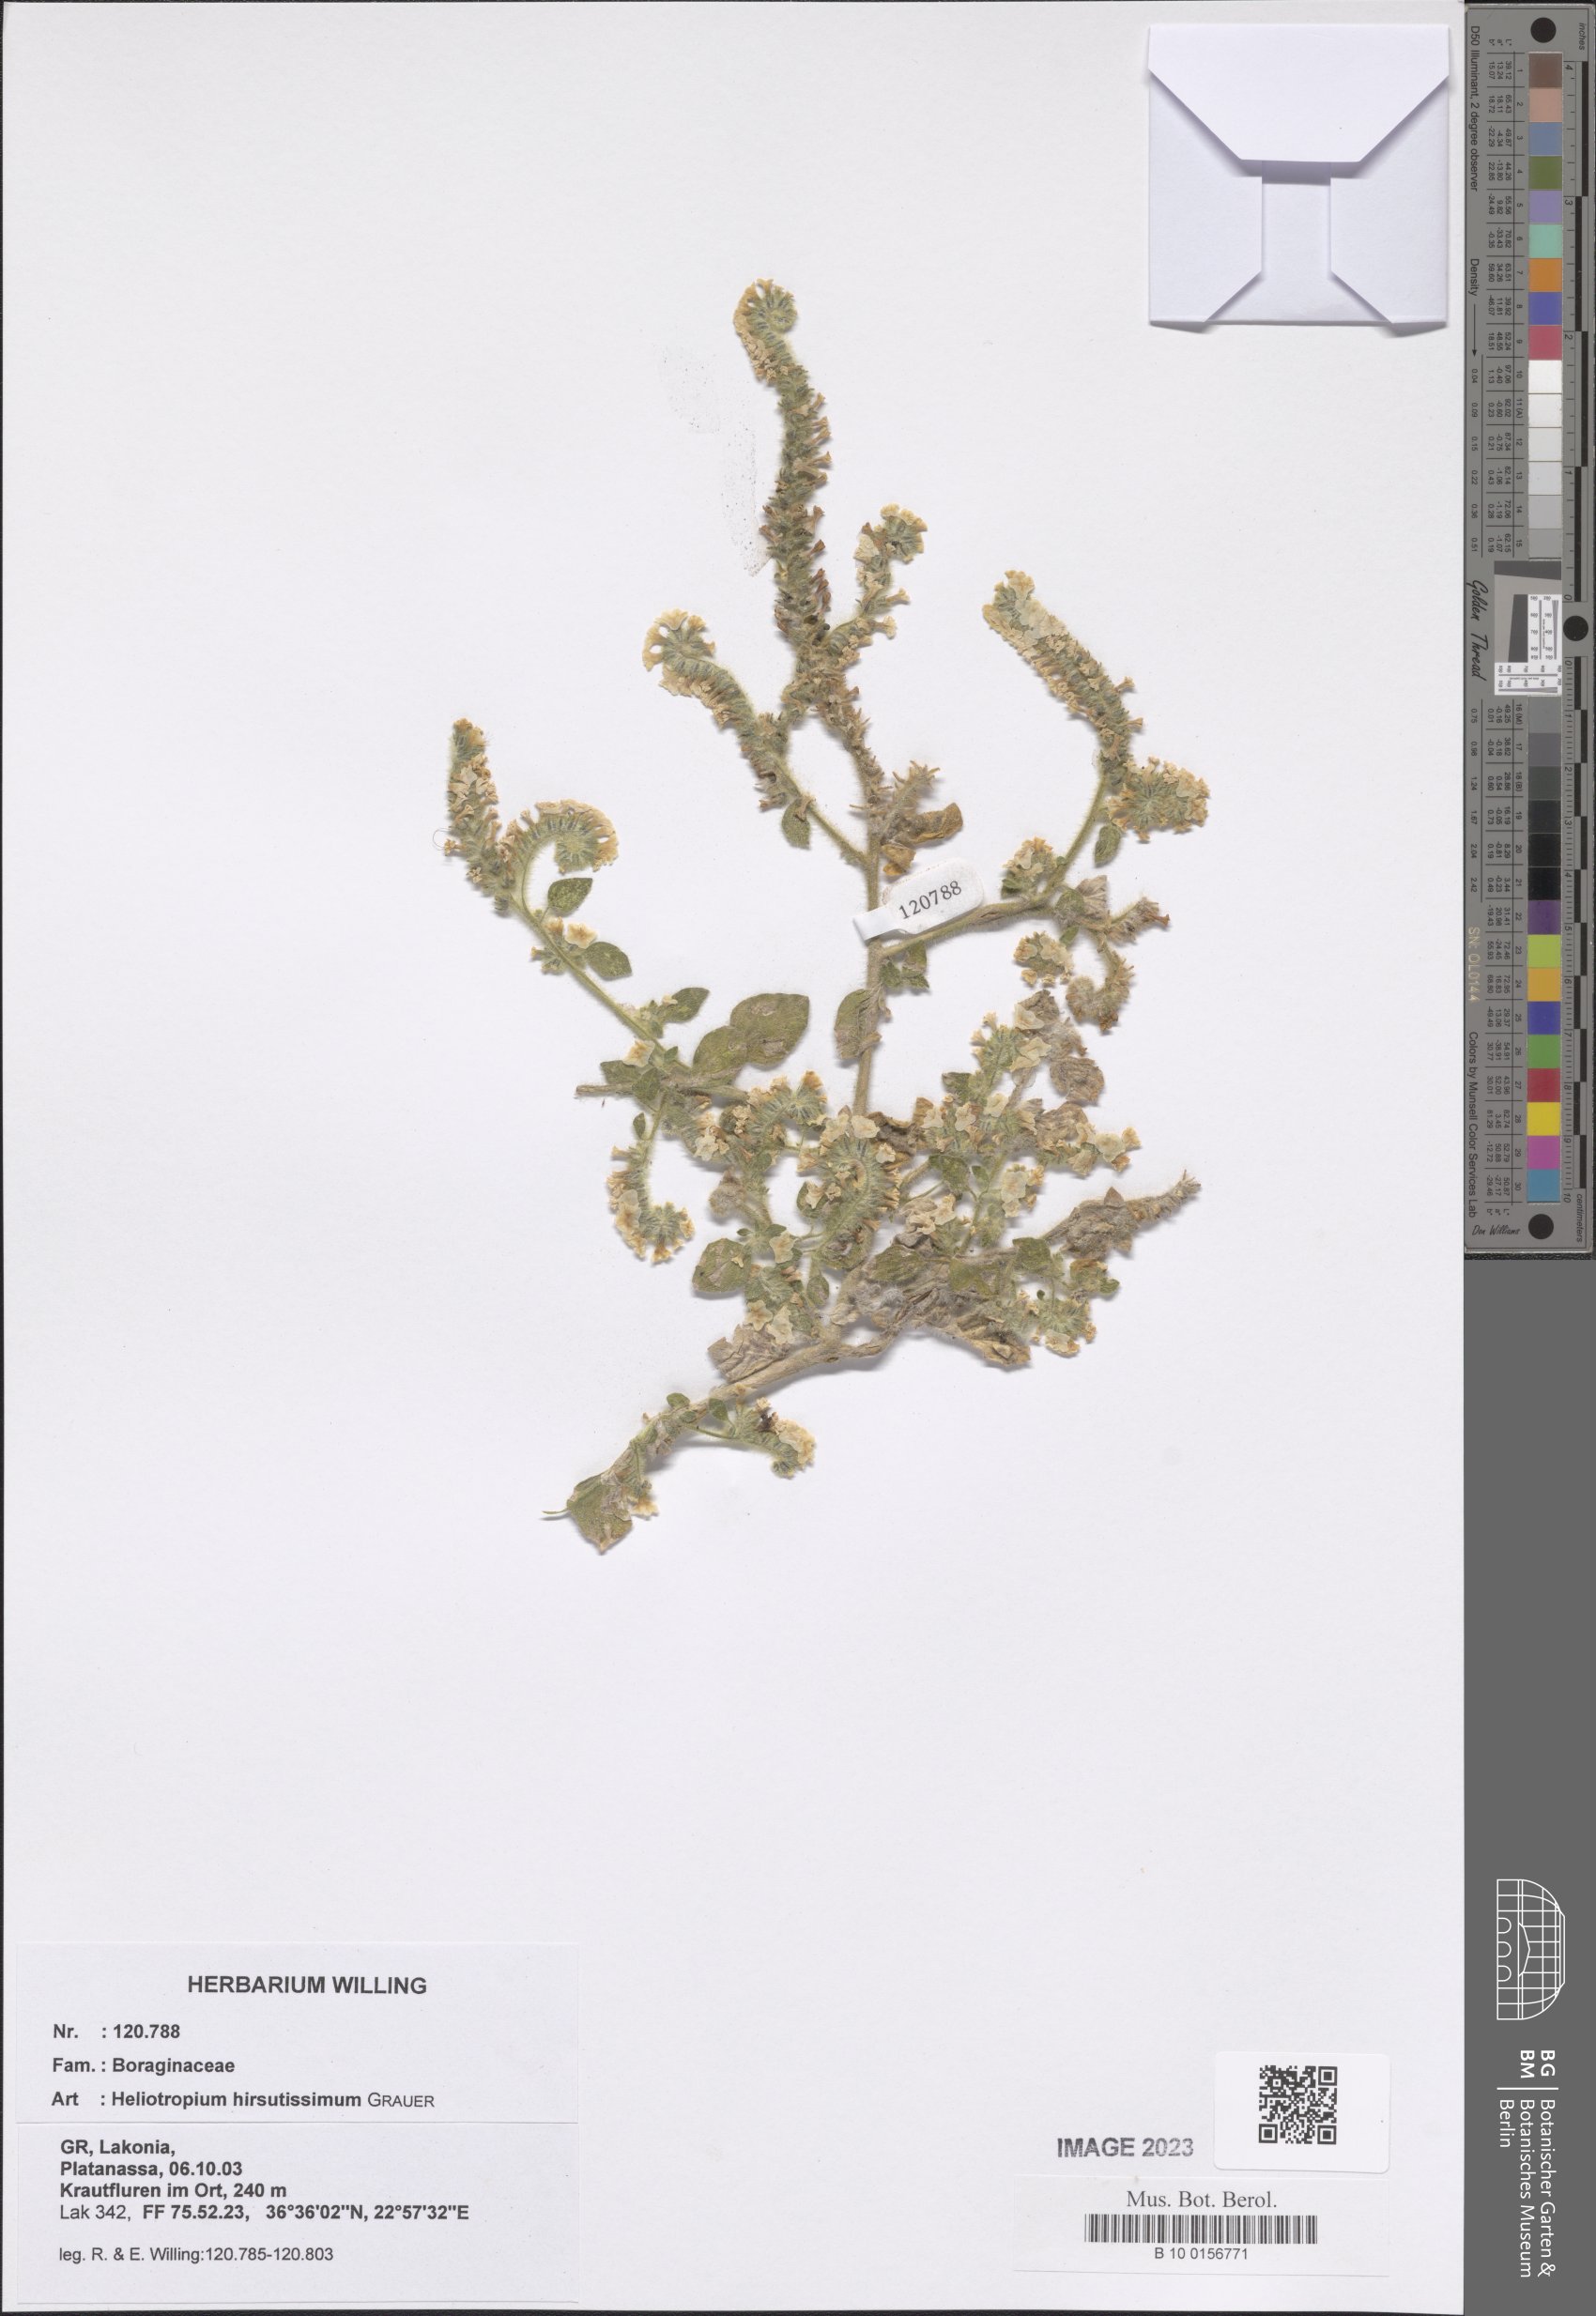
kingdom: Plantae
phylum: Tracheophyta
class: Magnoliopsida
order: Boraginales
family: Heliotropiaceae
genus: Heliotropium
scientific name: Heliotropium hirsutissimum
